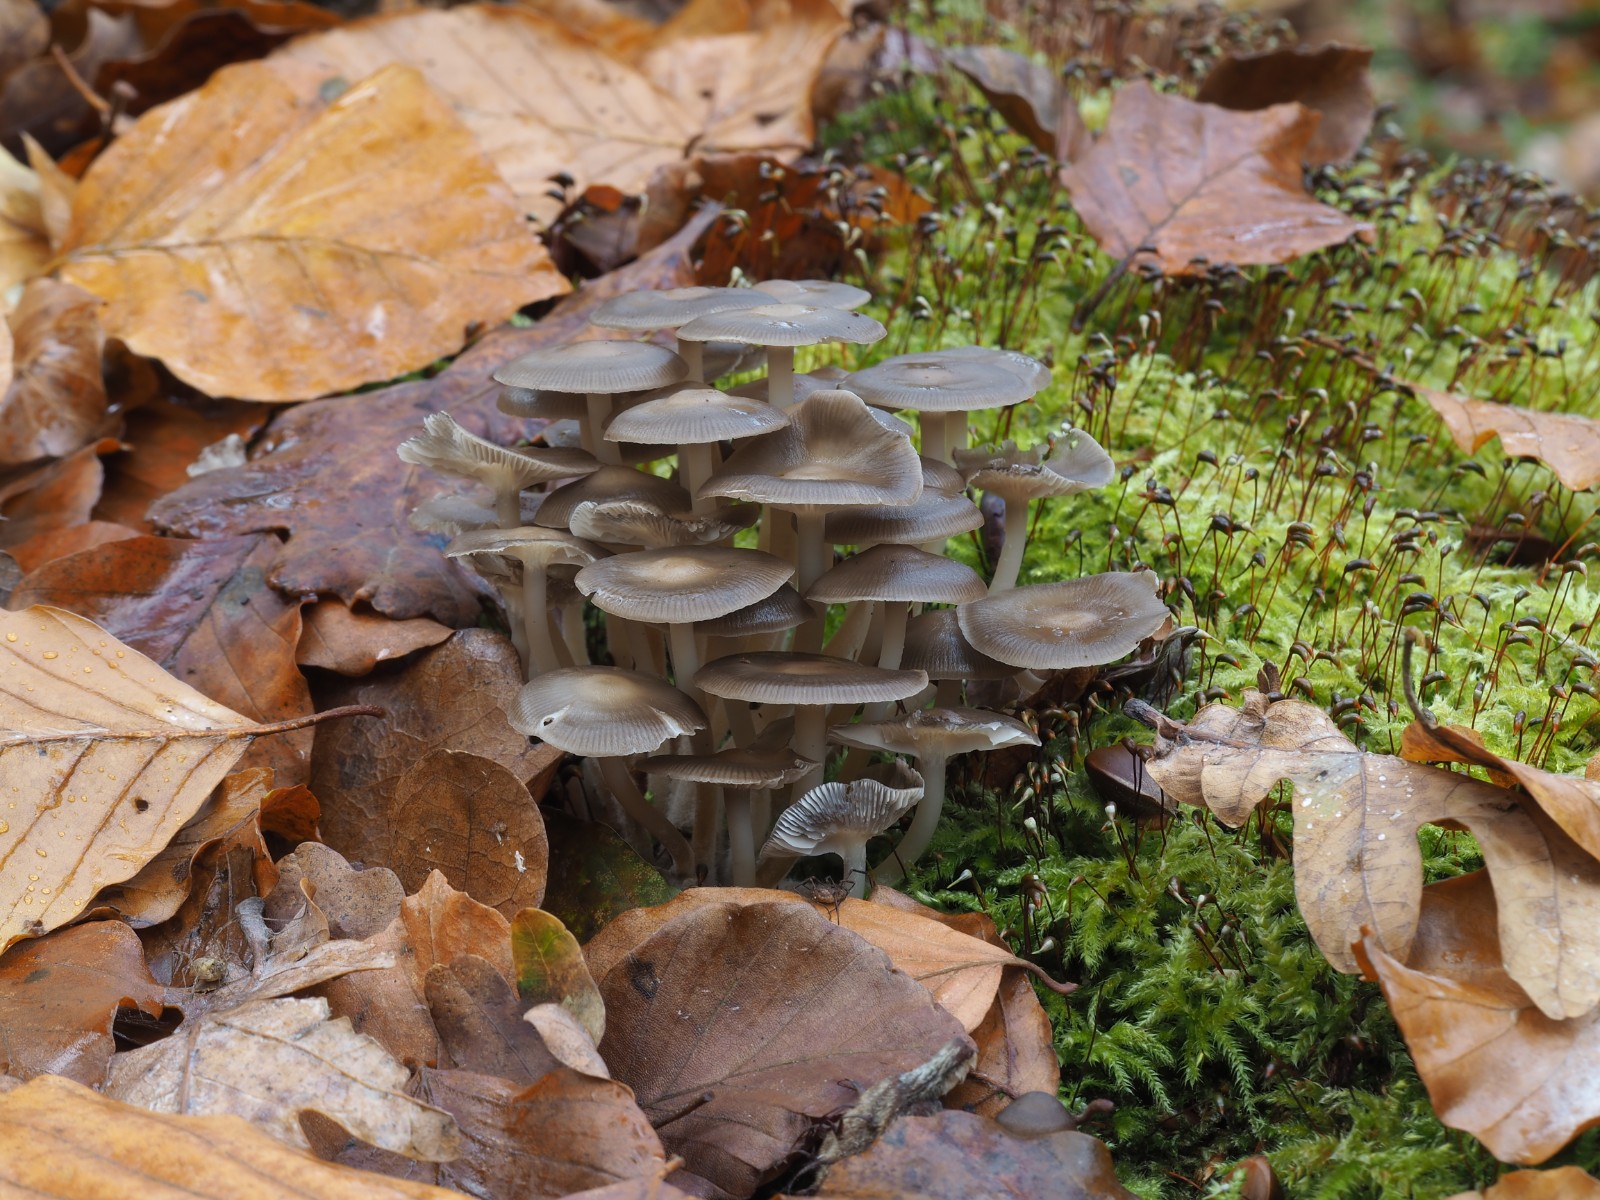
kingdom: Fungi
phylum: Basidiomycota
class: Agaricomycetes
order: Agaricales
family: Mycenaceae
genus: Mycena
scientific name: Mycena tintinnabulum
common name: vinter-huesvamp
